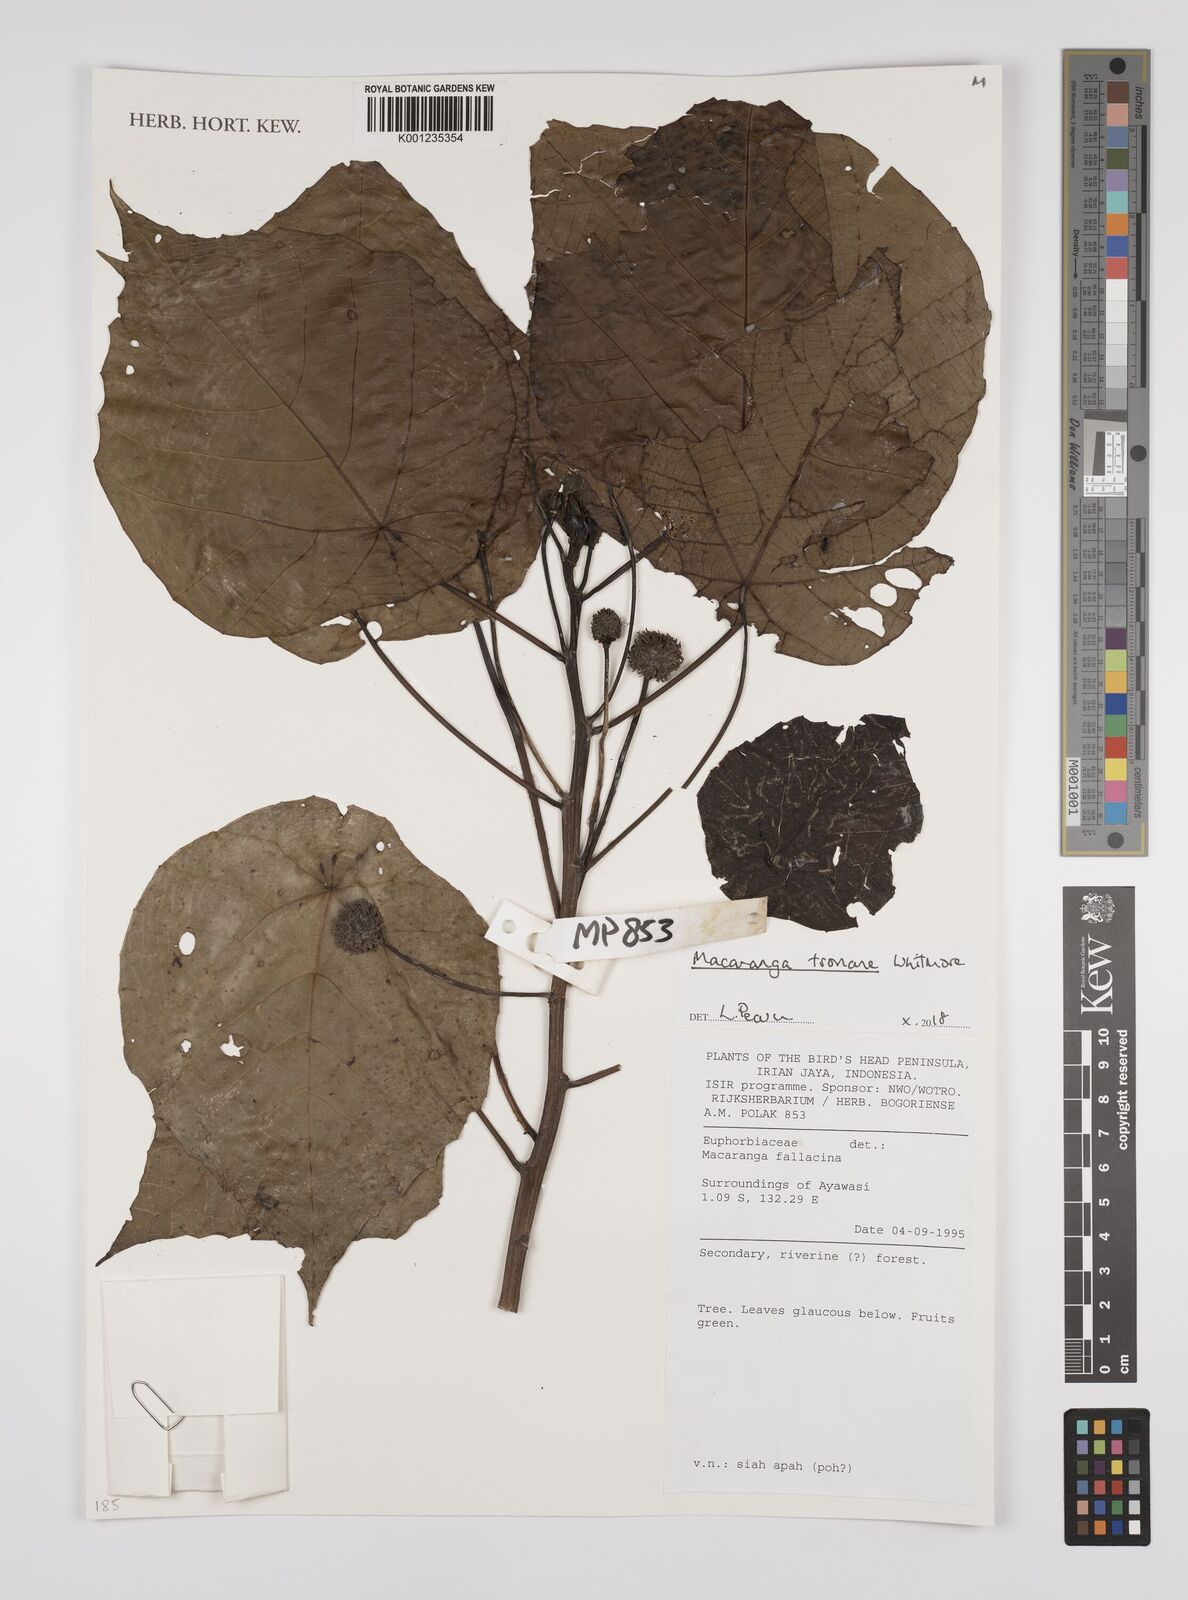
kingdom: Plantae
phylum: Tracheophyta
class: Magnoliopsida
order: Malpighiales
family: Euphorbiaceae
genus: Macaranga
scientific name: Macaranga tsonane
